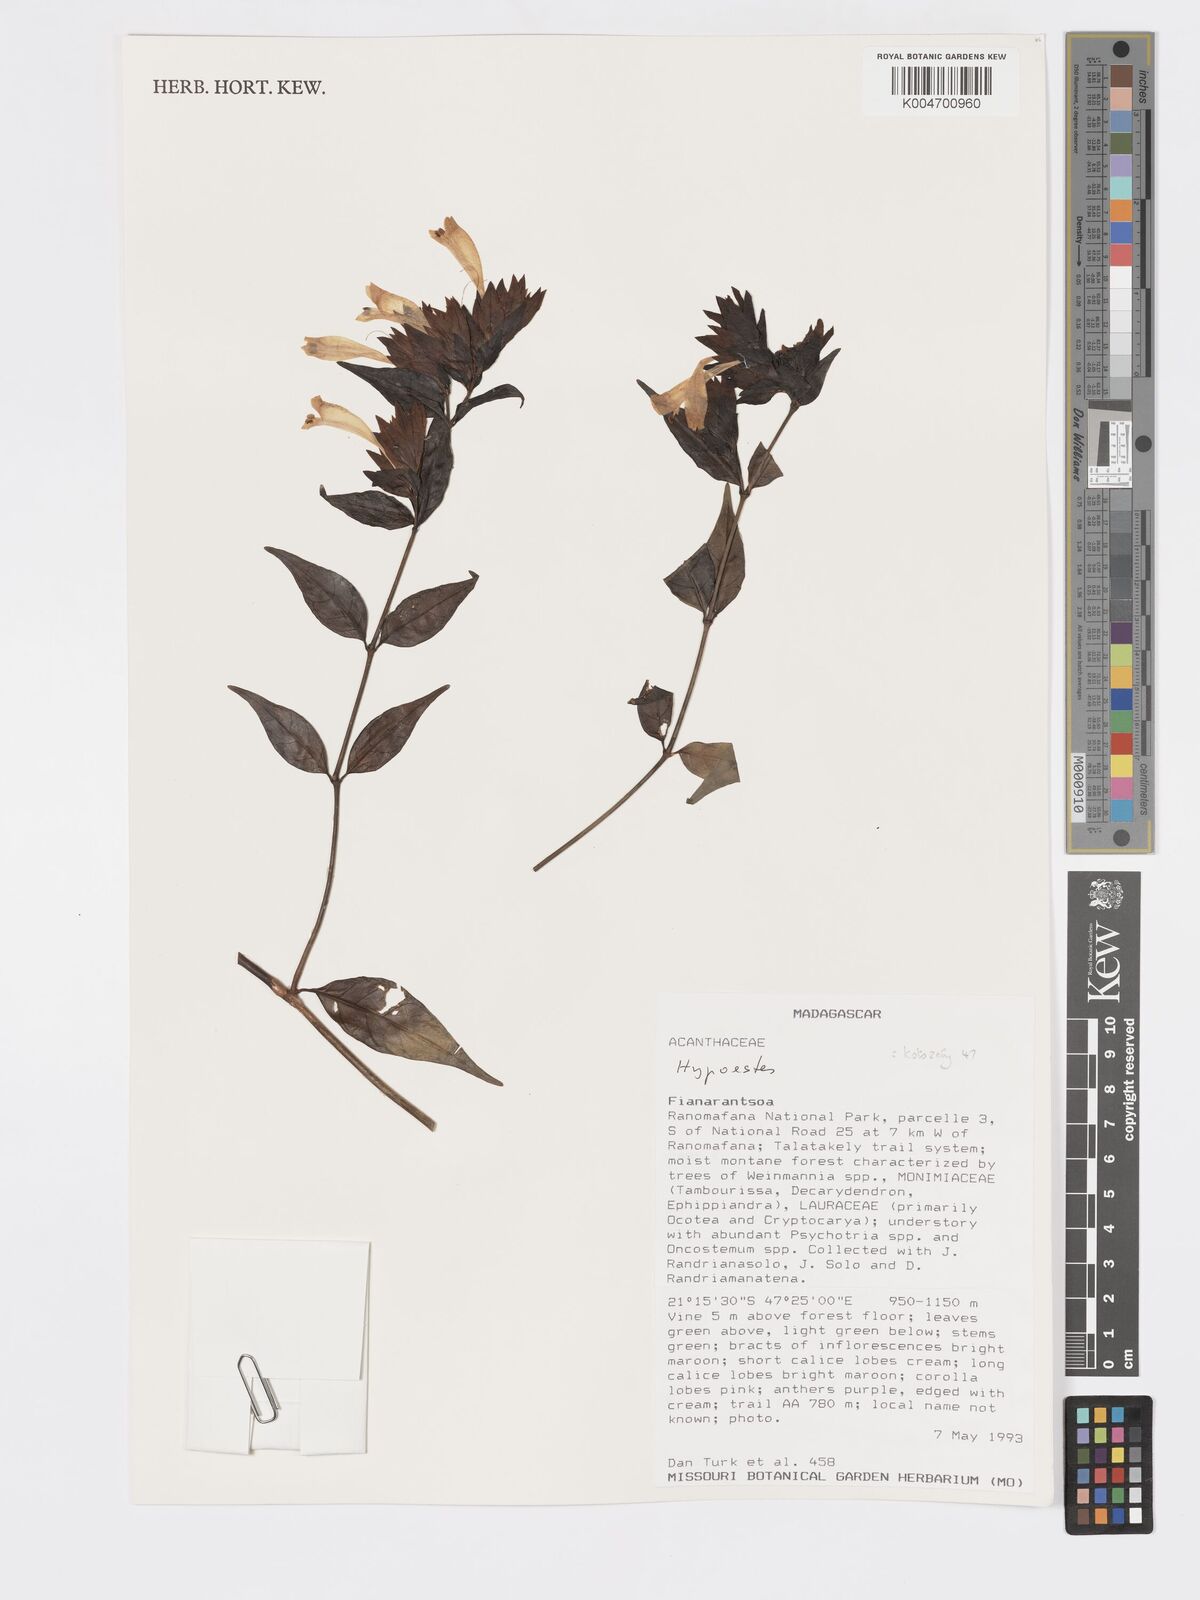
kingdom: Plantae
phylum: Tracheophyta
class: Magnoliopsida
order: Lamiales
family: Acanthaceae
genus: Hypoestes
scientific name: Hypoestes
